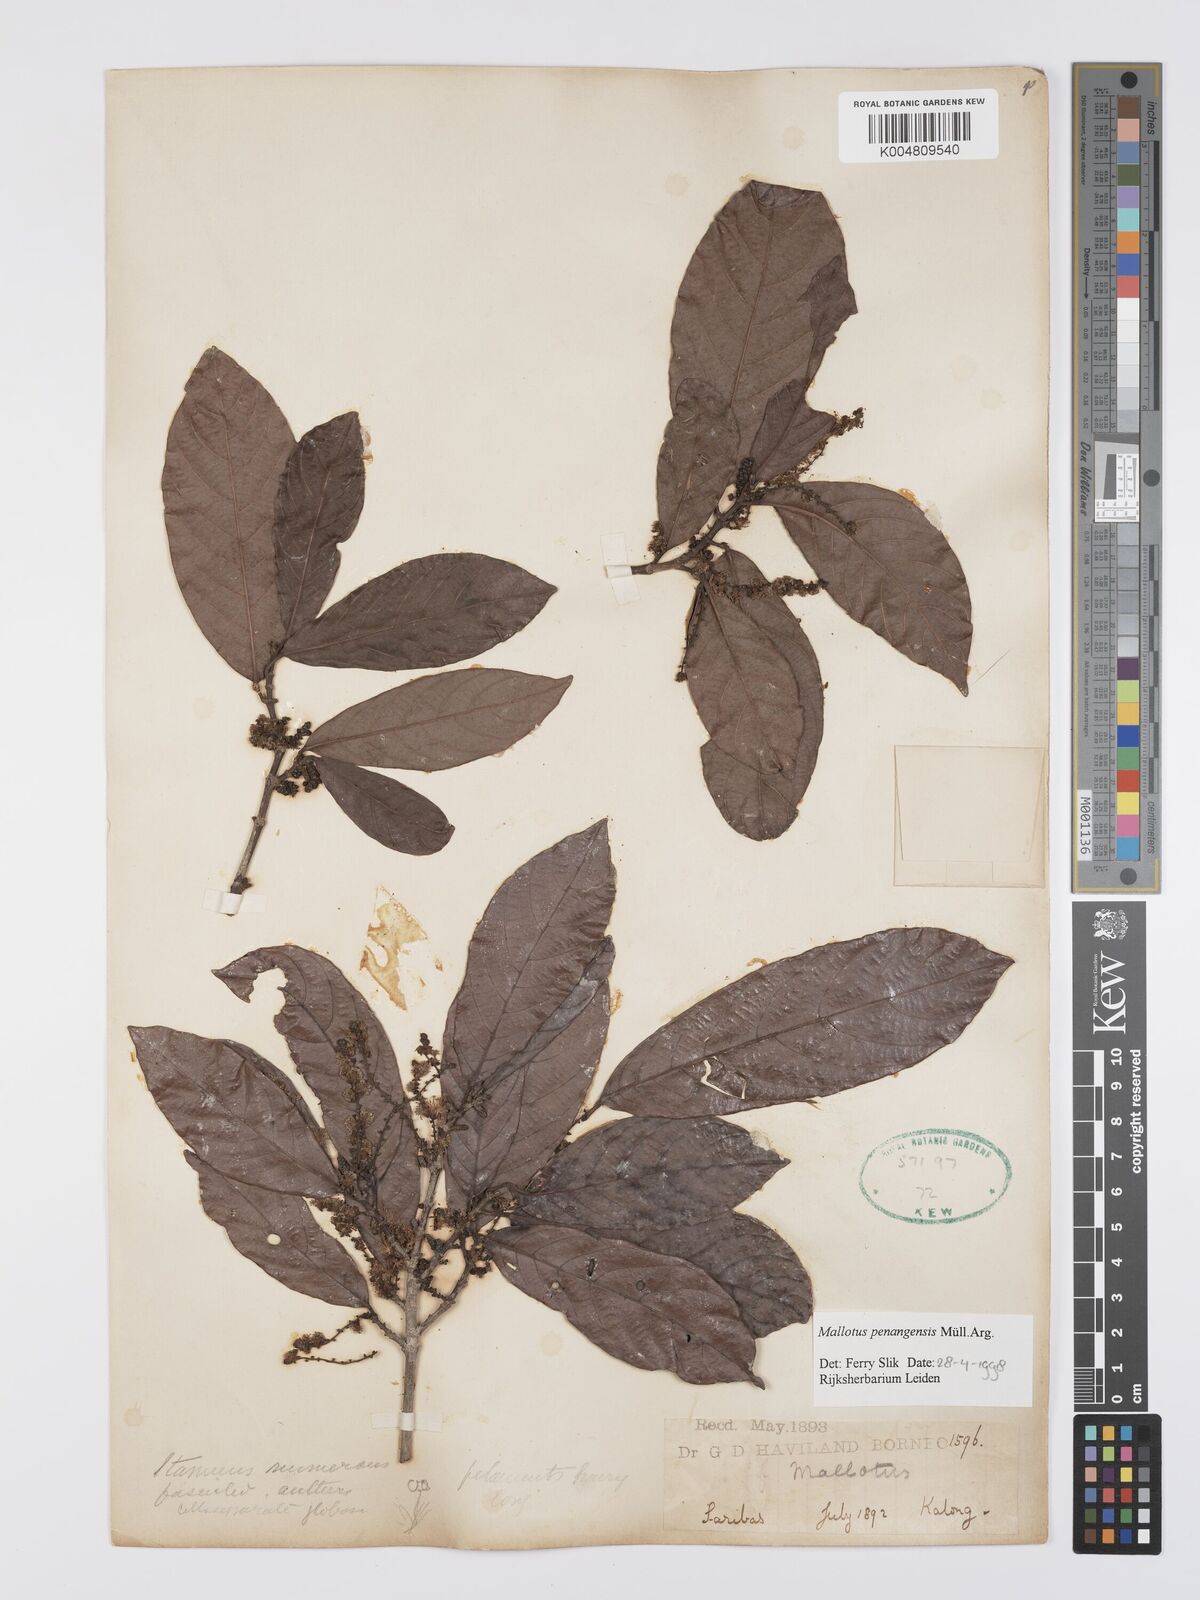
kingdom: Plantae
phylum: Tracheophyta
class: Magnoliopsida
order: Malpighiales
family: Euphorbiaceae
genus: Hancea
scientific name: Hancea penangensis
